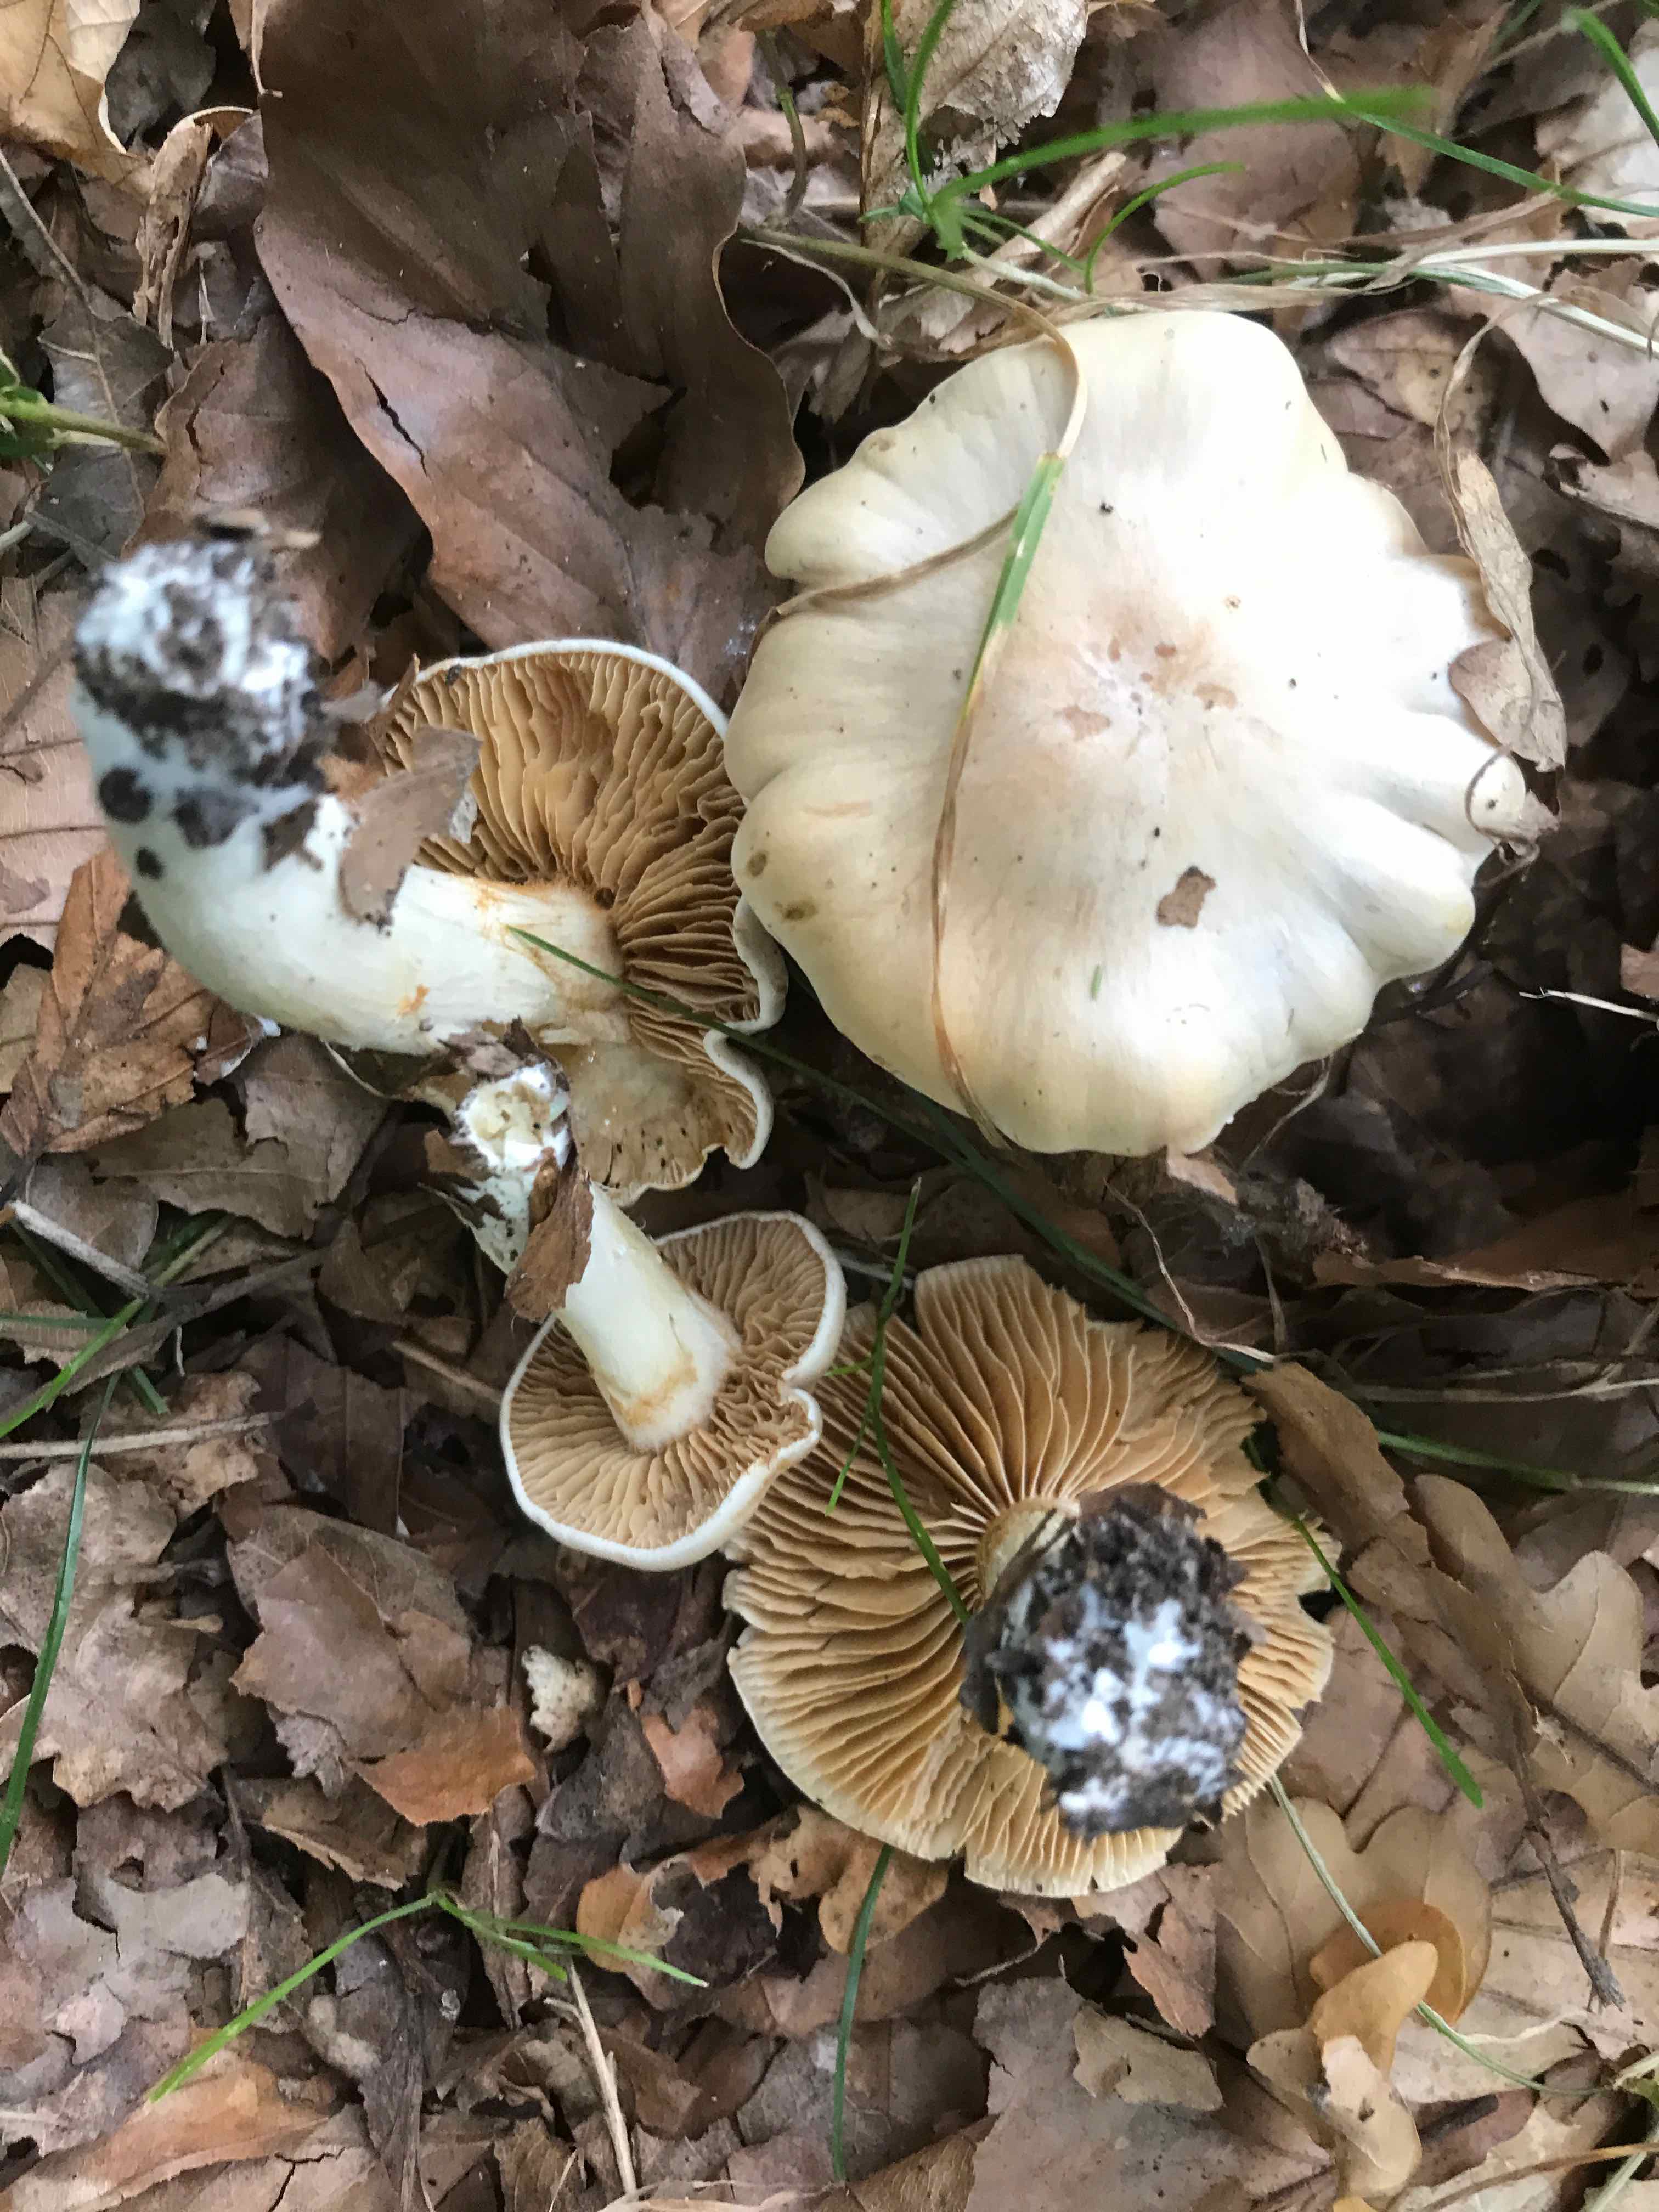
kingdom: Fungi
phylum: Basidiomycota
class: Agaricomycetes
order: Agaricales
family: Cortinariaceae
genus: Thaxterogaster
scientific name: Thaxterogaster barbatus
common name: elfenbens-slørhat
